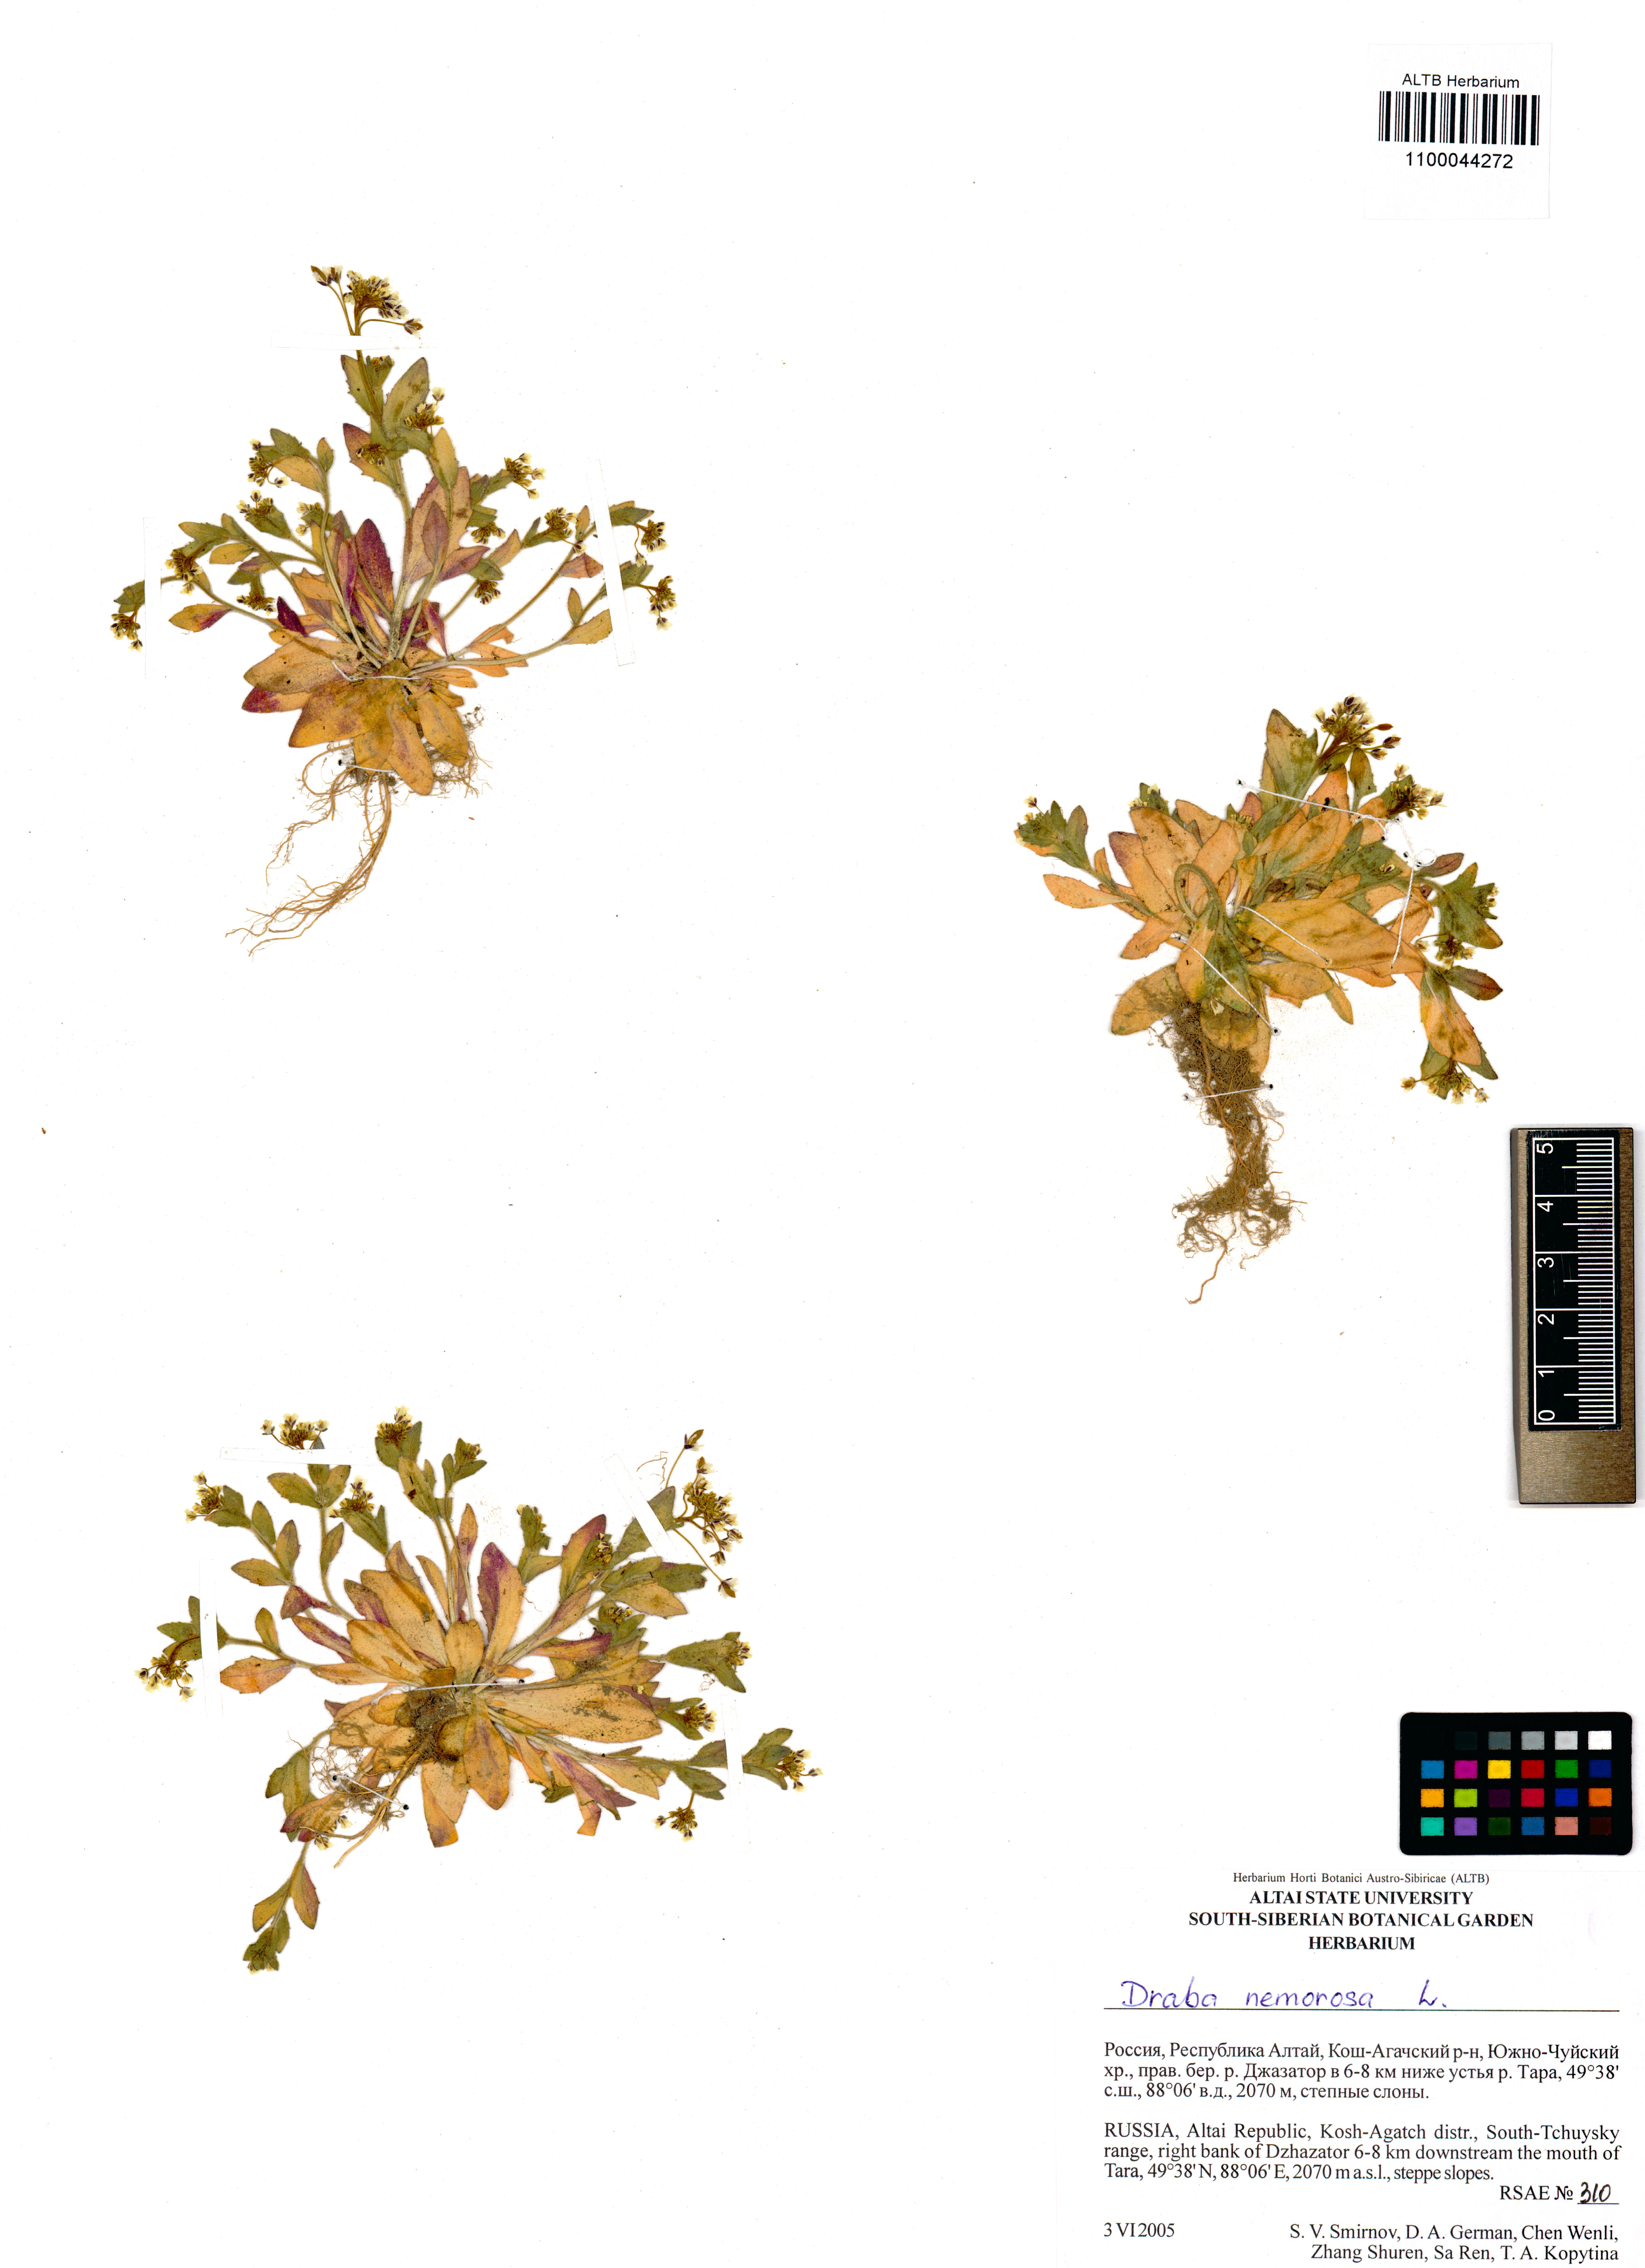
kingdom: Plantae
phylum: Tracheophyta
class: Magnoliopsida
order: Brassicales
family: Brassicaceae
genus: Draba
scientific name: Draba nemorosa
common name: Wood whitlow-grass
